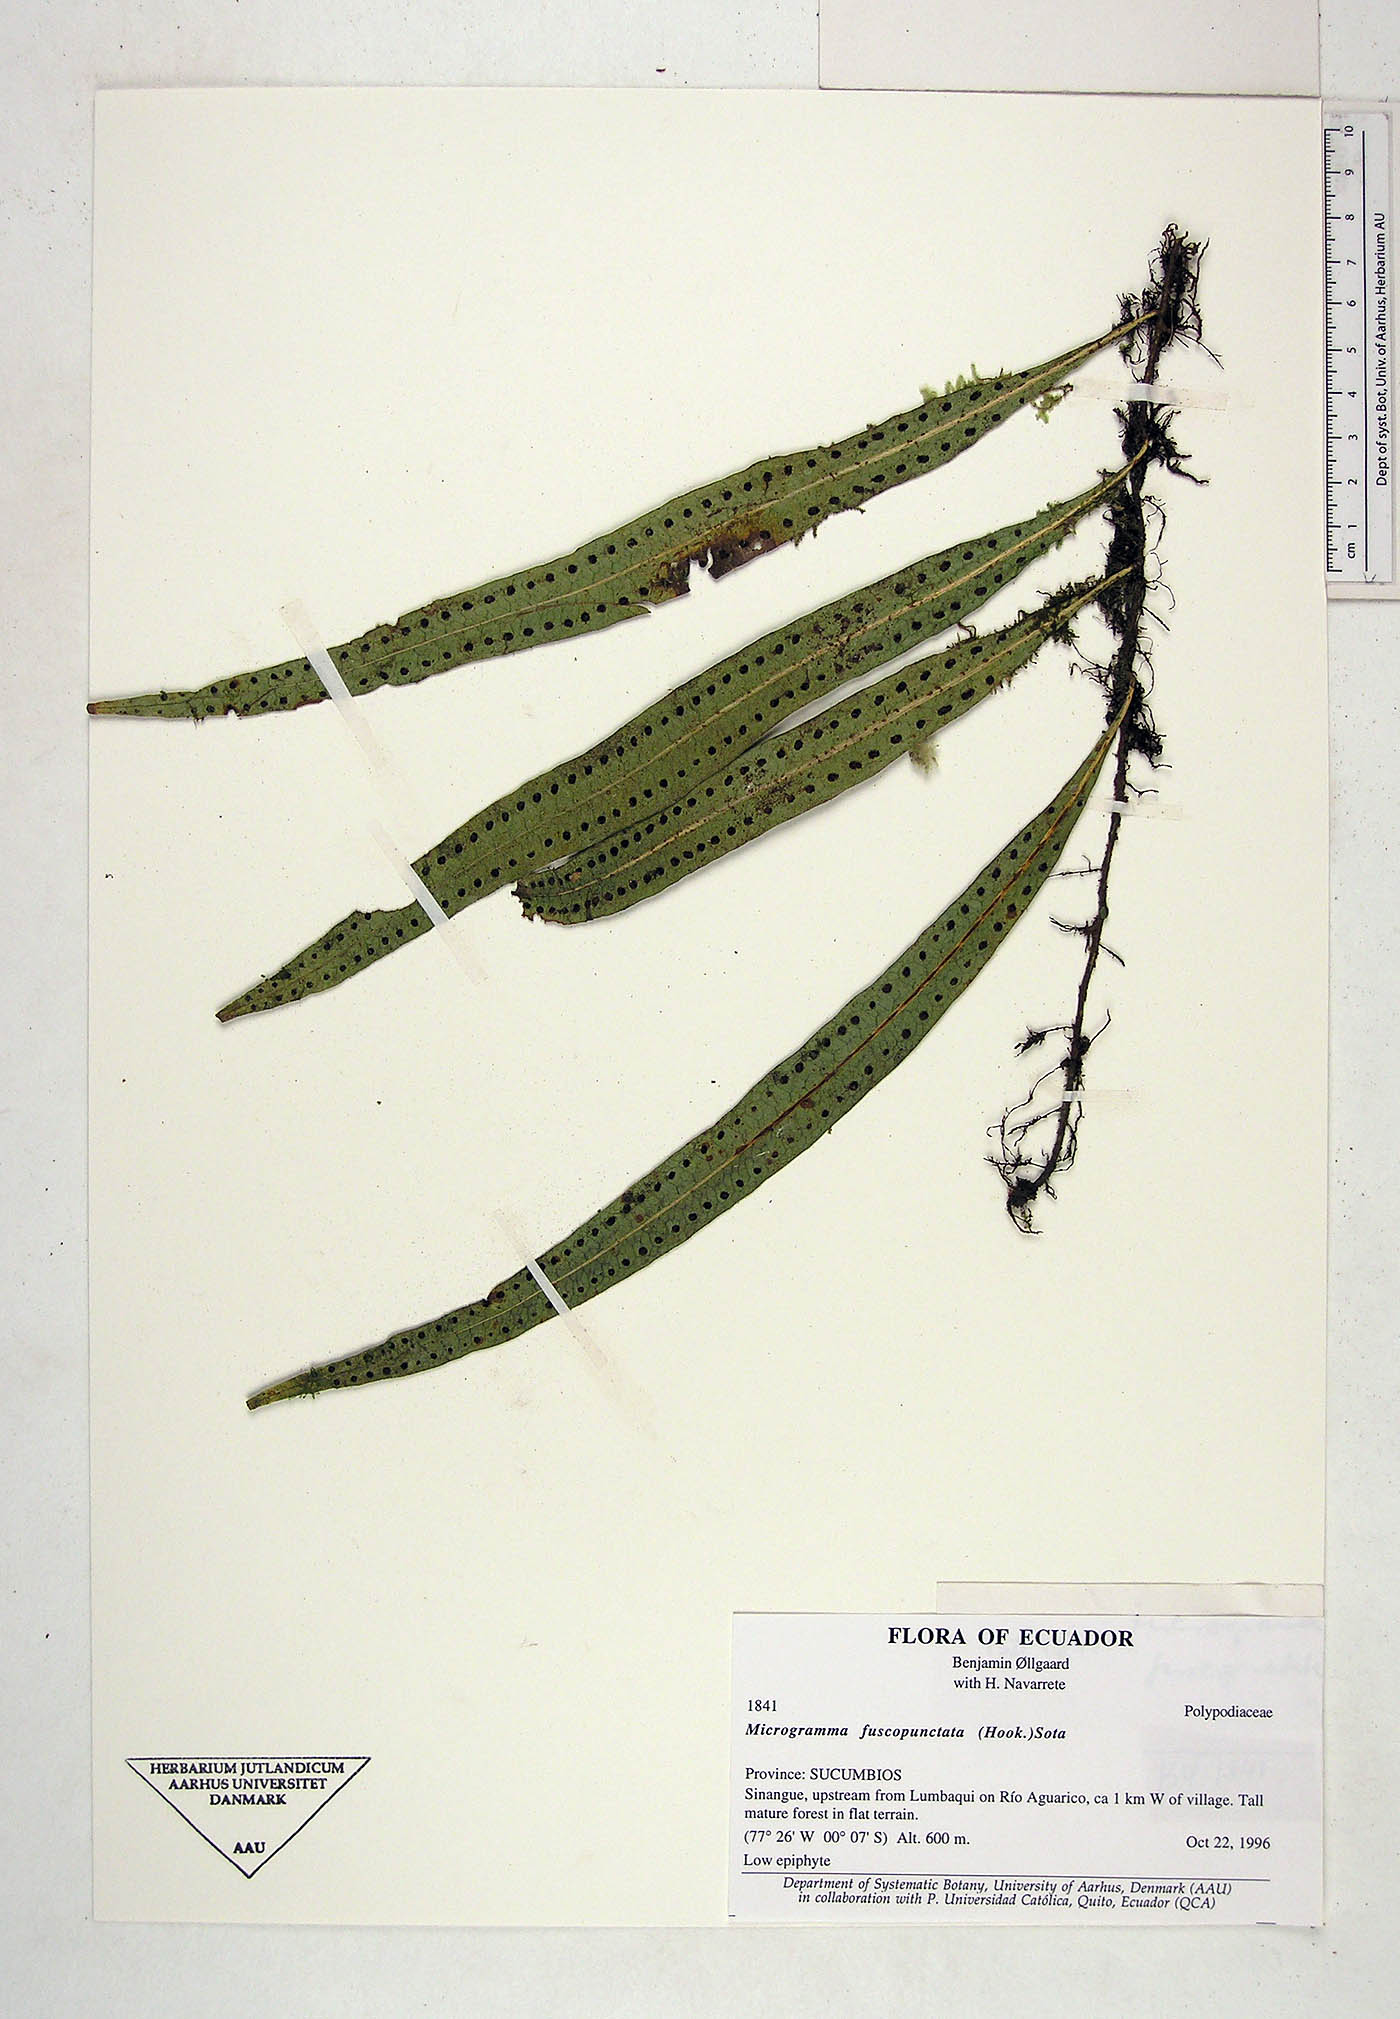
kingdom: Plantae
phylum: Tracheophyta
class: Polypodiopsida
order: Polypodiales
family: Polypodiaceae
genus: Microgramma
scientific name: Microgramma dictyophylla
